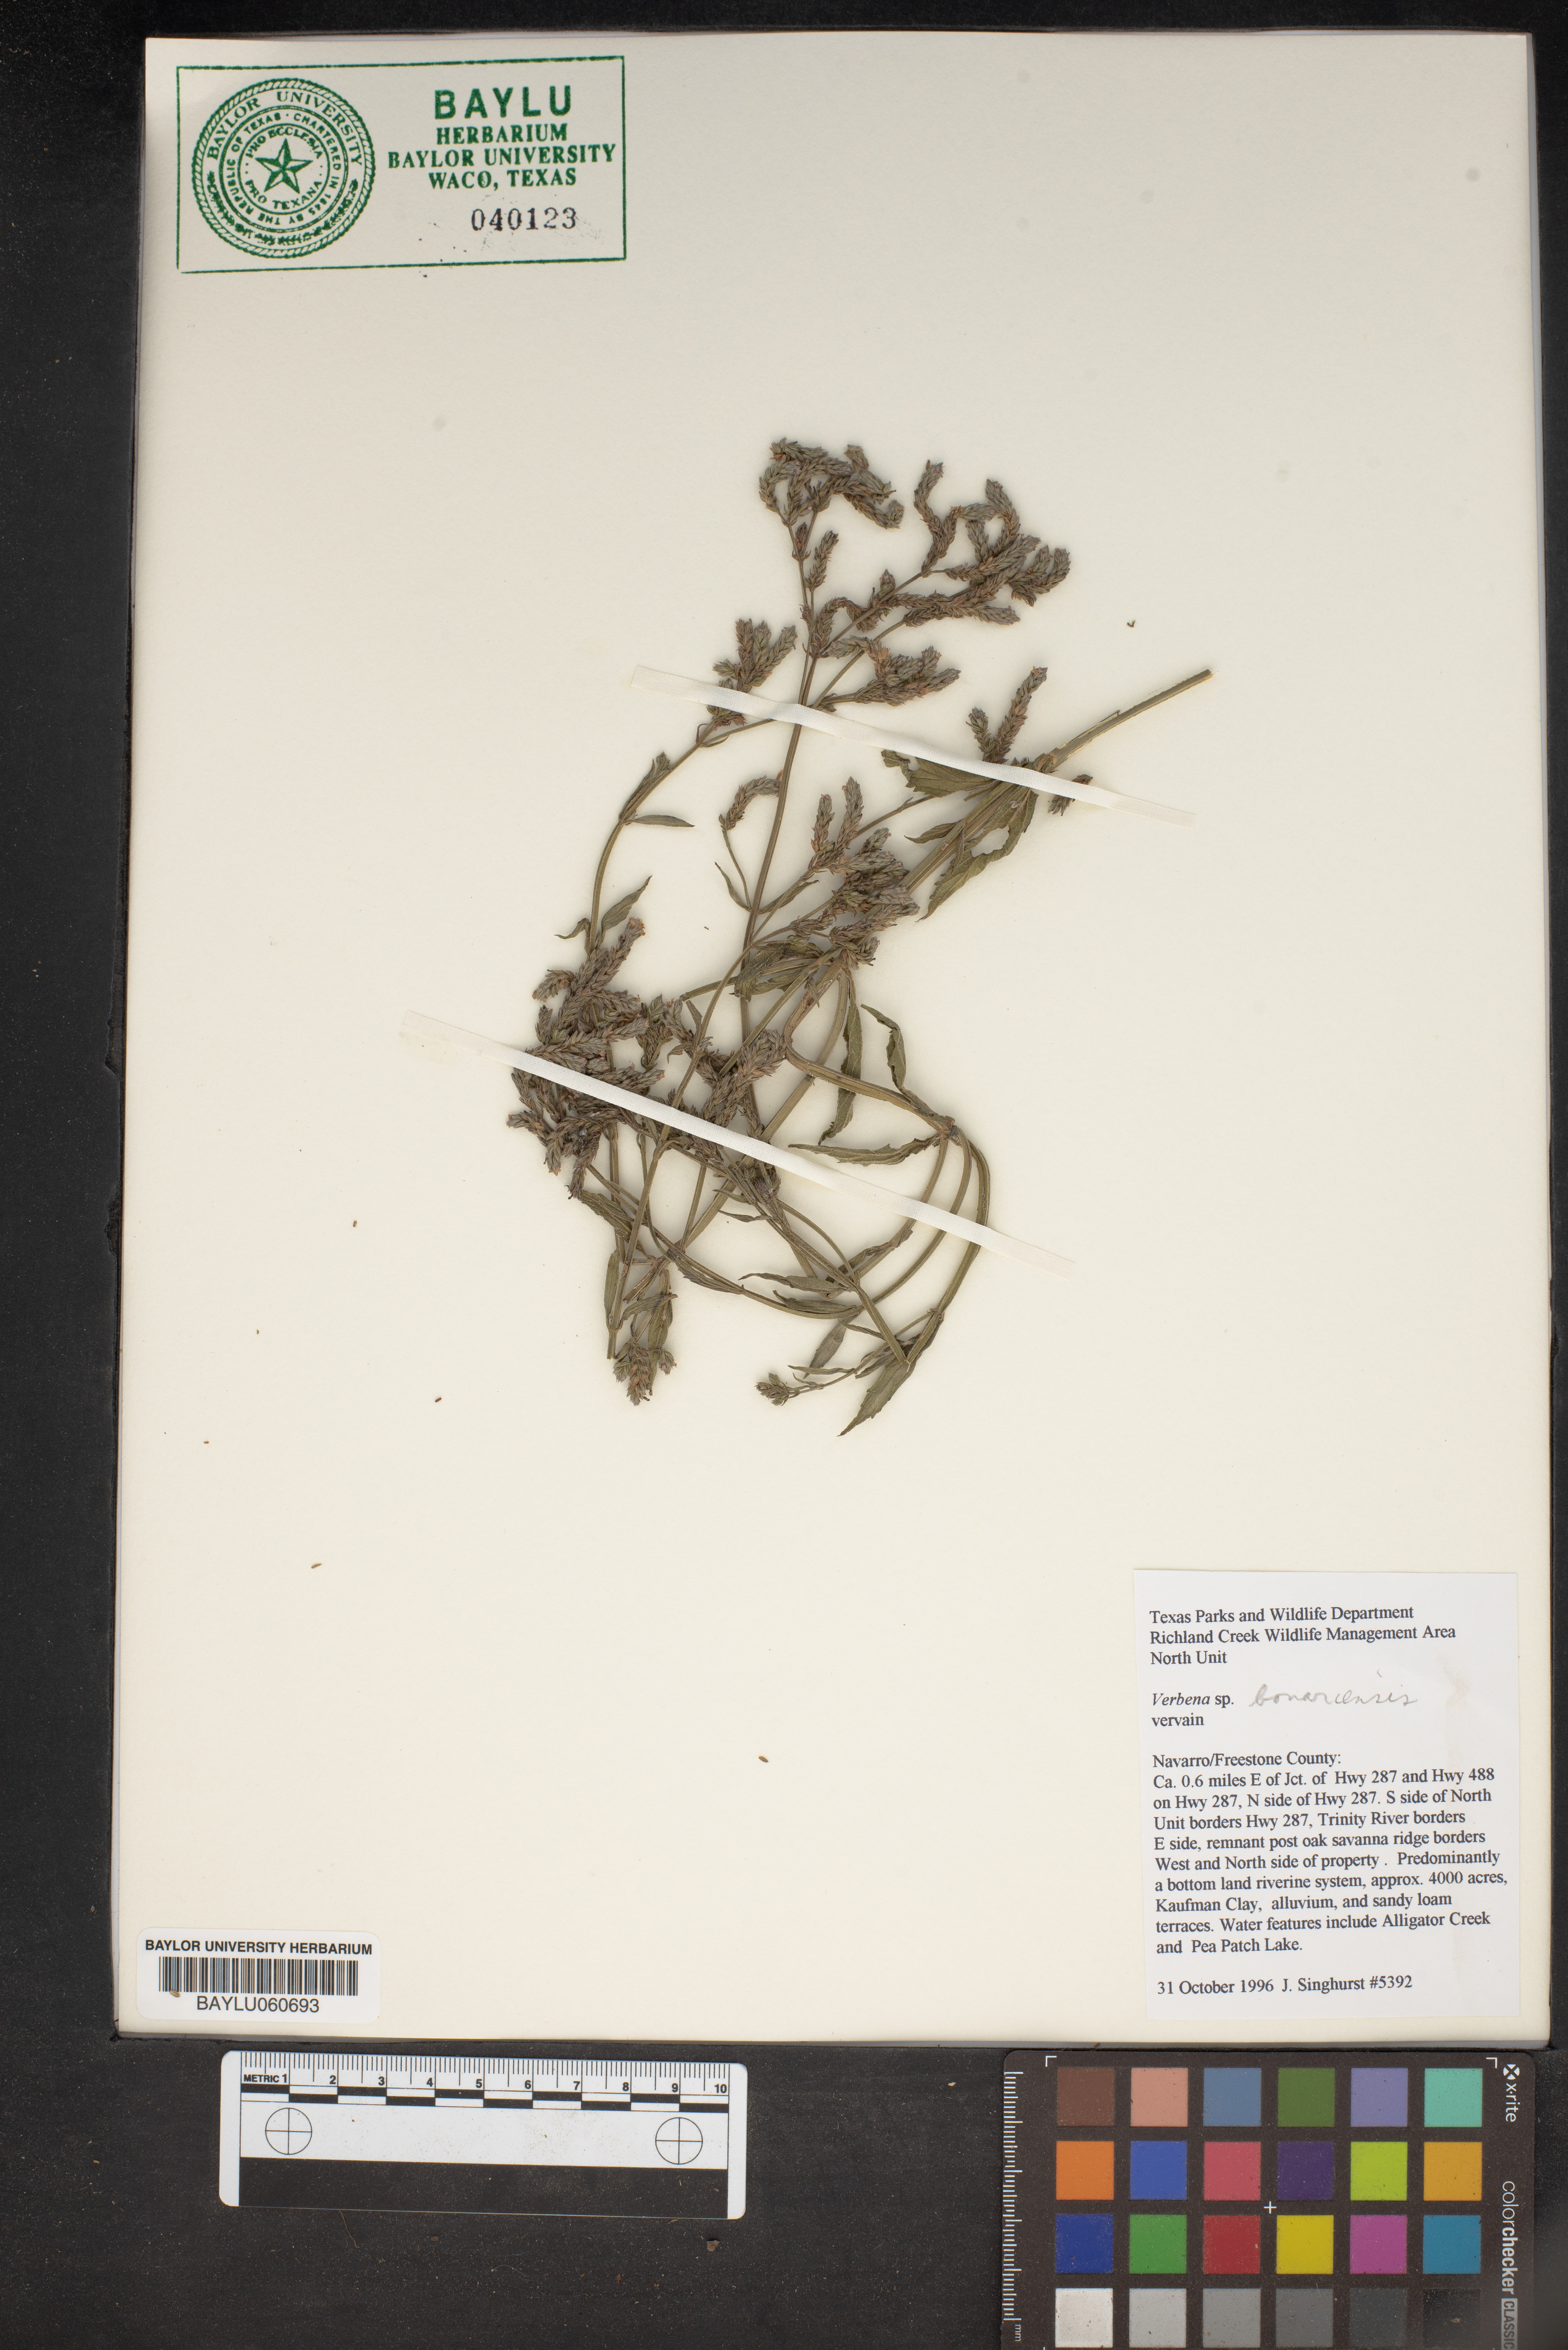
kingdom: Plantae
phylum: Tracheophyta
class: Magnoliopsida
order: Lamiales
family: Verbenaceae
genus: Verbena
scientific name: Verbena bonariensis
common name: Purpletop vervain
